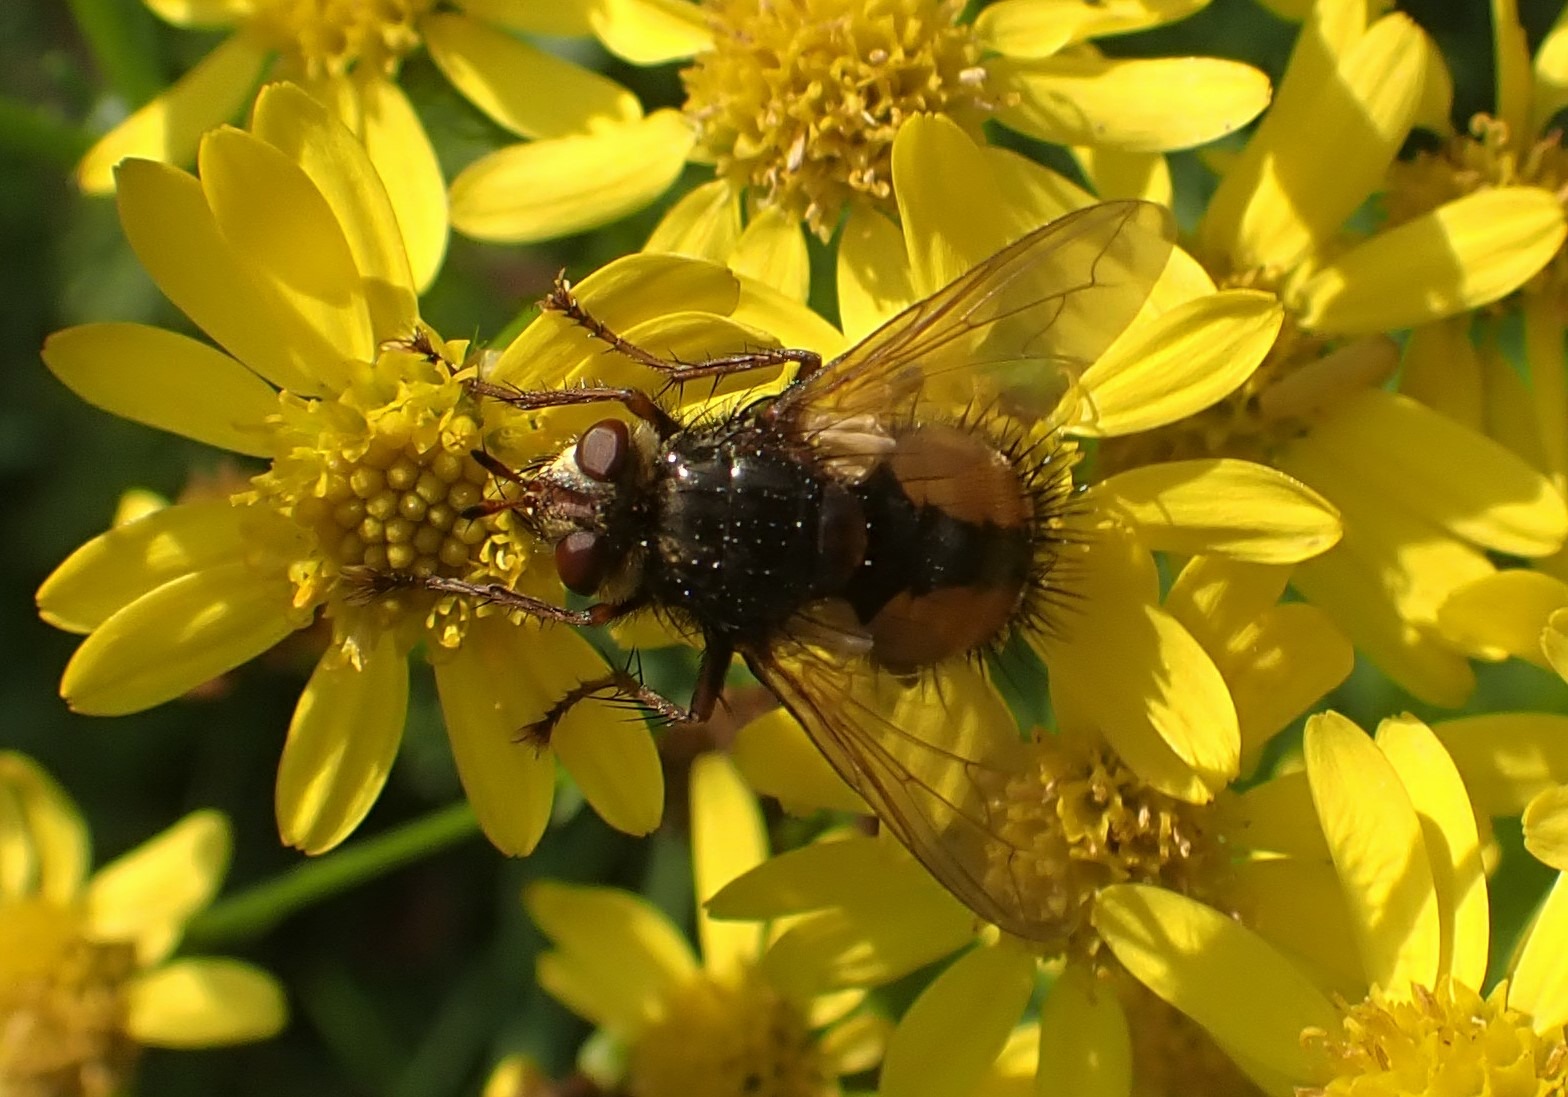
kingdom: Animalia
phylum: Arthropoda
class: Insecta
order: Diptera
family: Tachinidae
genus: Tachina
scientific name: Tachina fera
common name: Mellemfluen oskar
